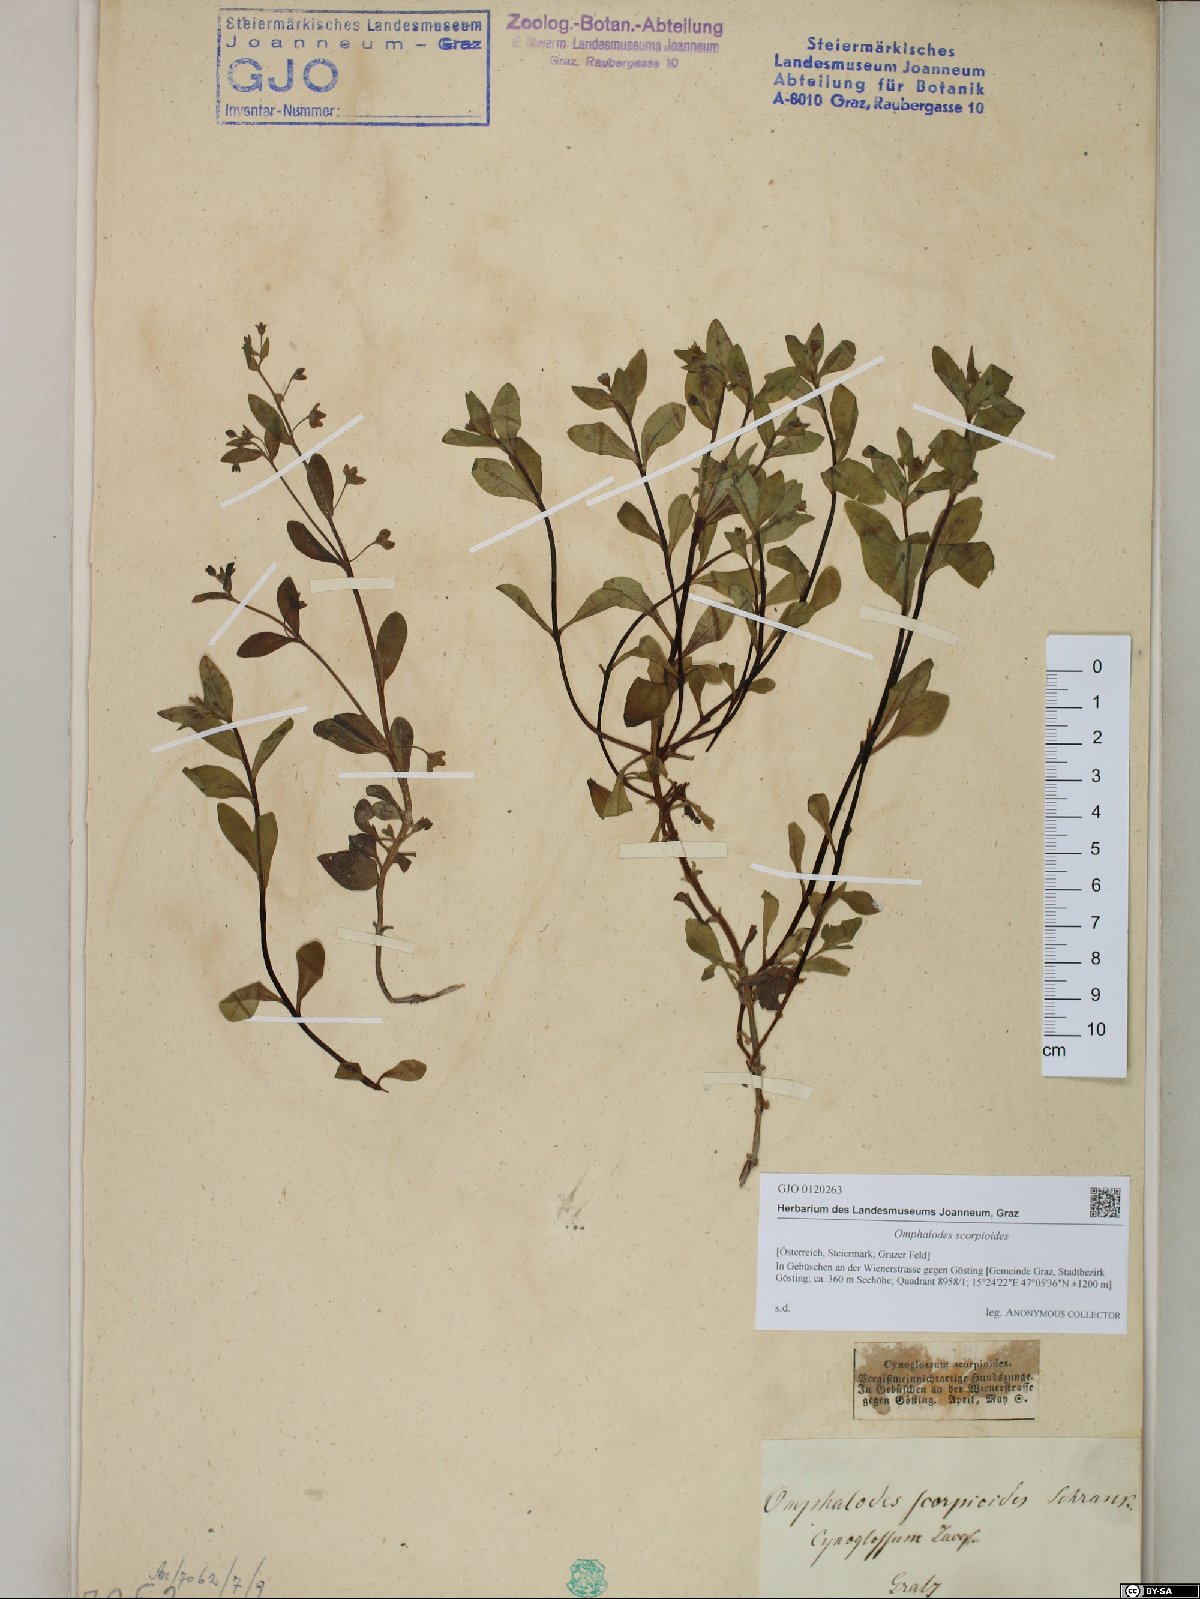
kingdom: Plantae
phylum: Tracheophyta
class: Magnoliopsida
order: Boraginales
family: Boraginaceae
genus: Memoremea
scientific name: Memoremea scorpioides
